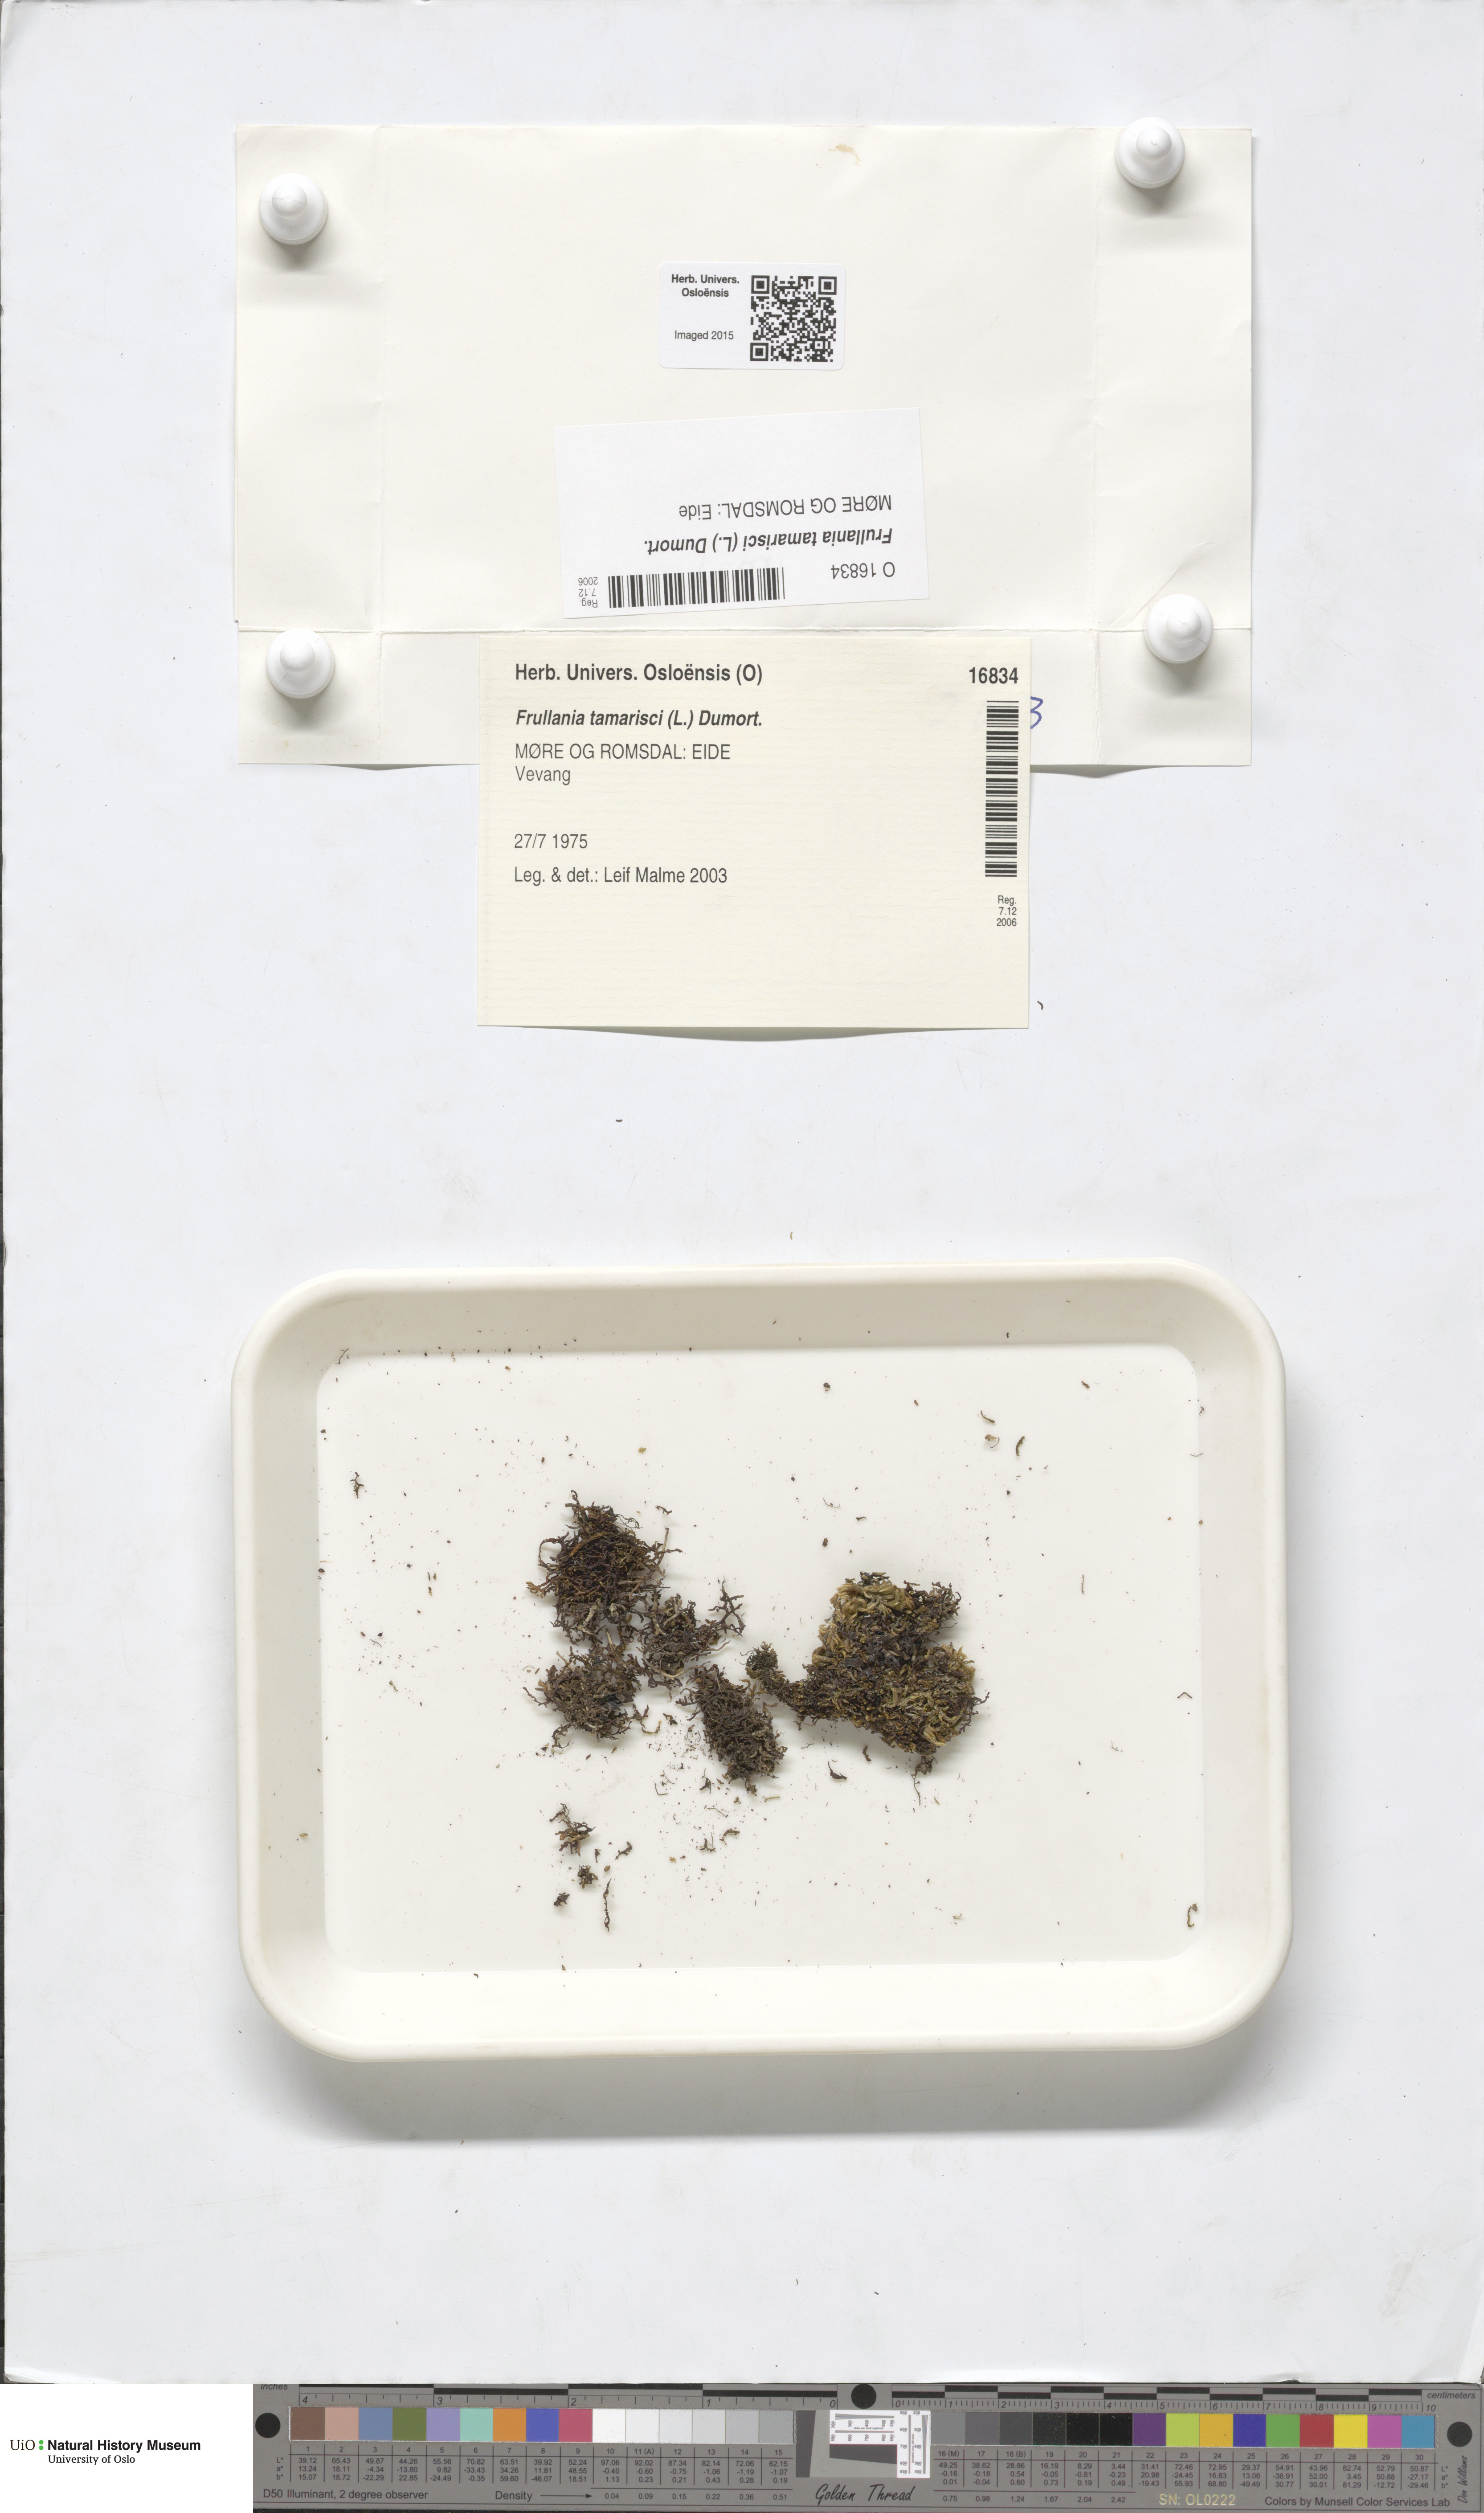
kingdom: Plantae
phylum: Marchantiophyta
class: Jungermanniopsida
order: Porellales
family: Frullaniaceae
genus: Frullania
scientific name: Frullania tamarisci
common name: Tamarisk scalewort
